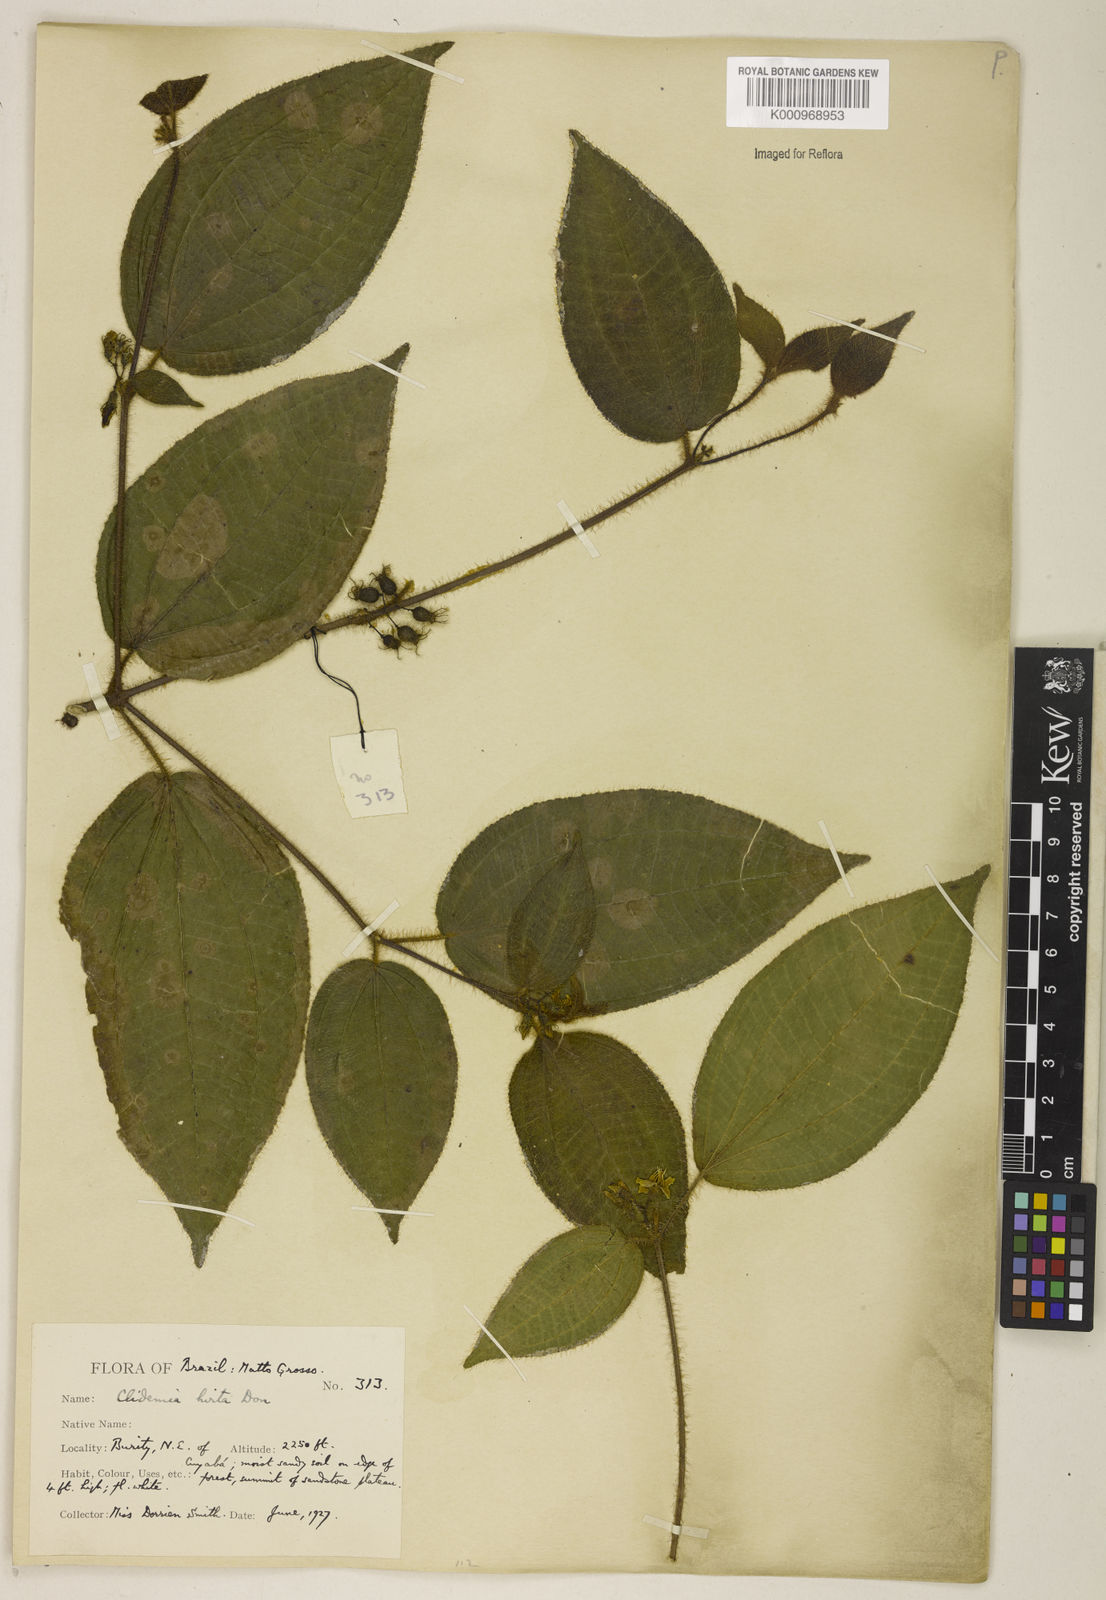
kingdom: Plantae
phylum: Tracheophyta
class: Magnoliopsida
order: Myrtales
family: Melastomataceae
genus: Miconia
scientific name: Miconia crenata
